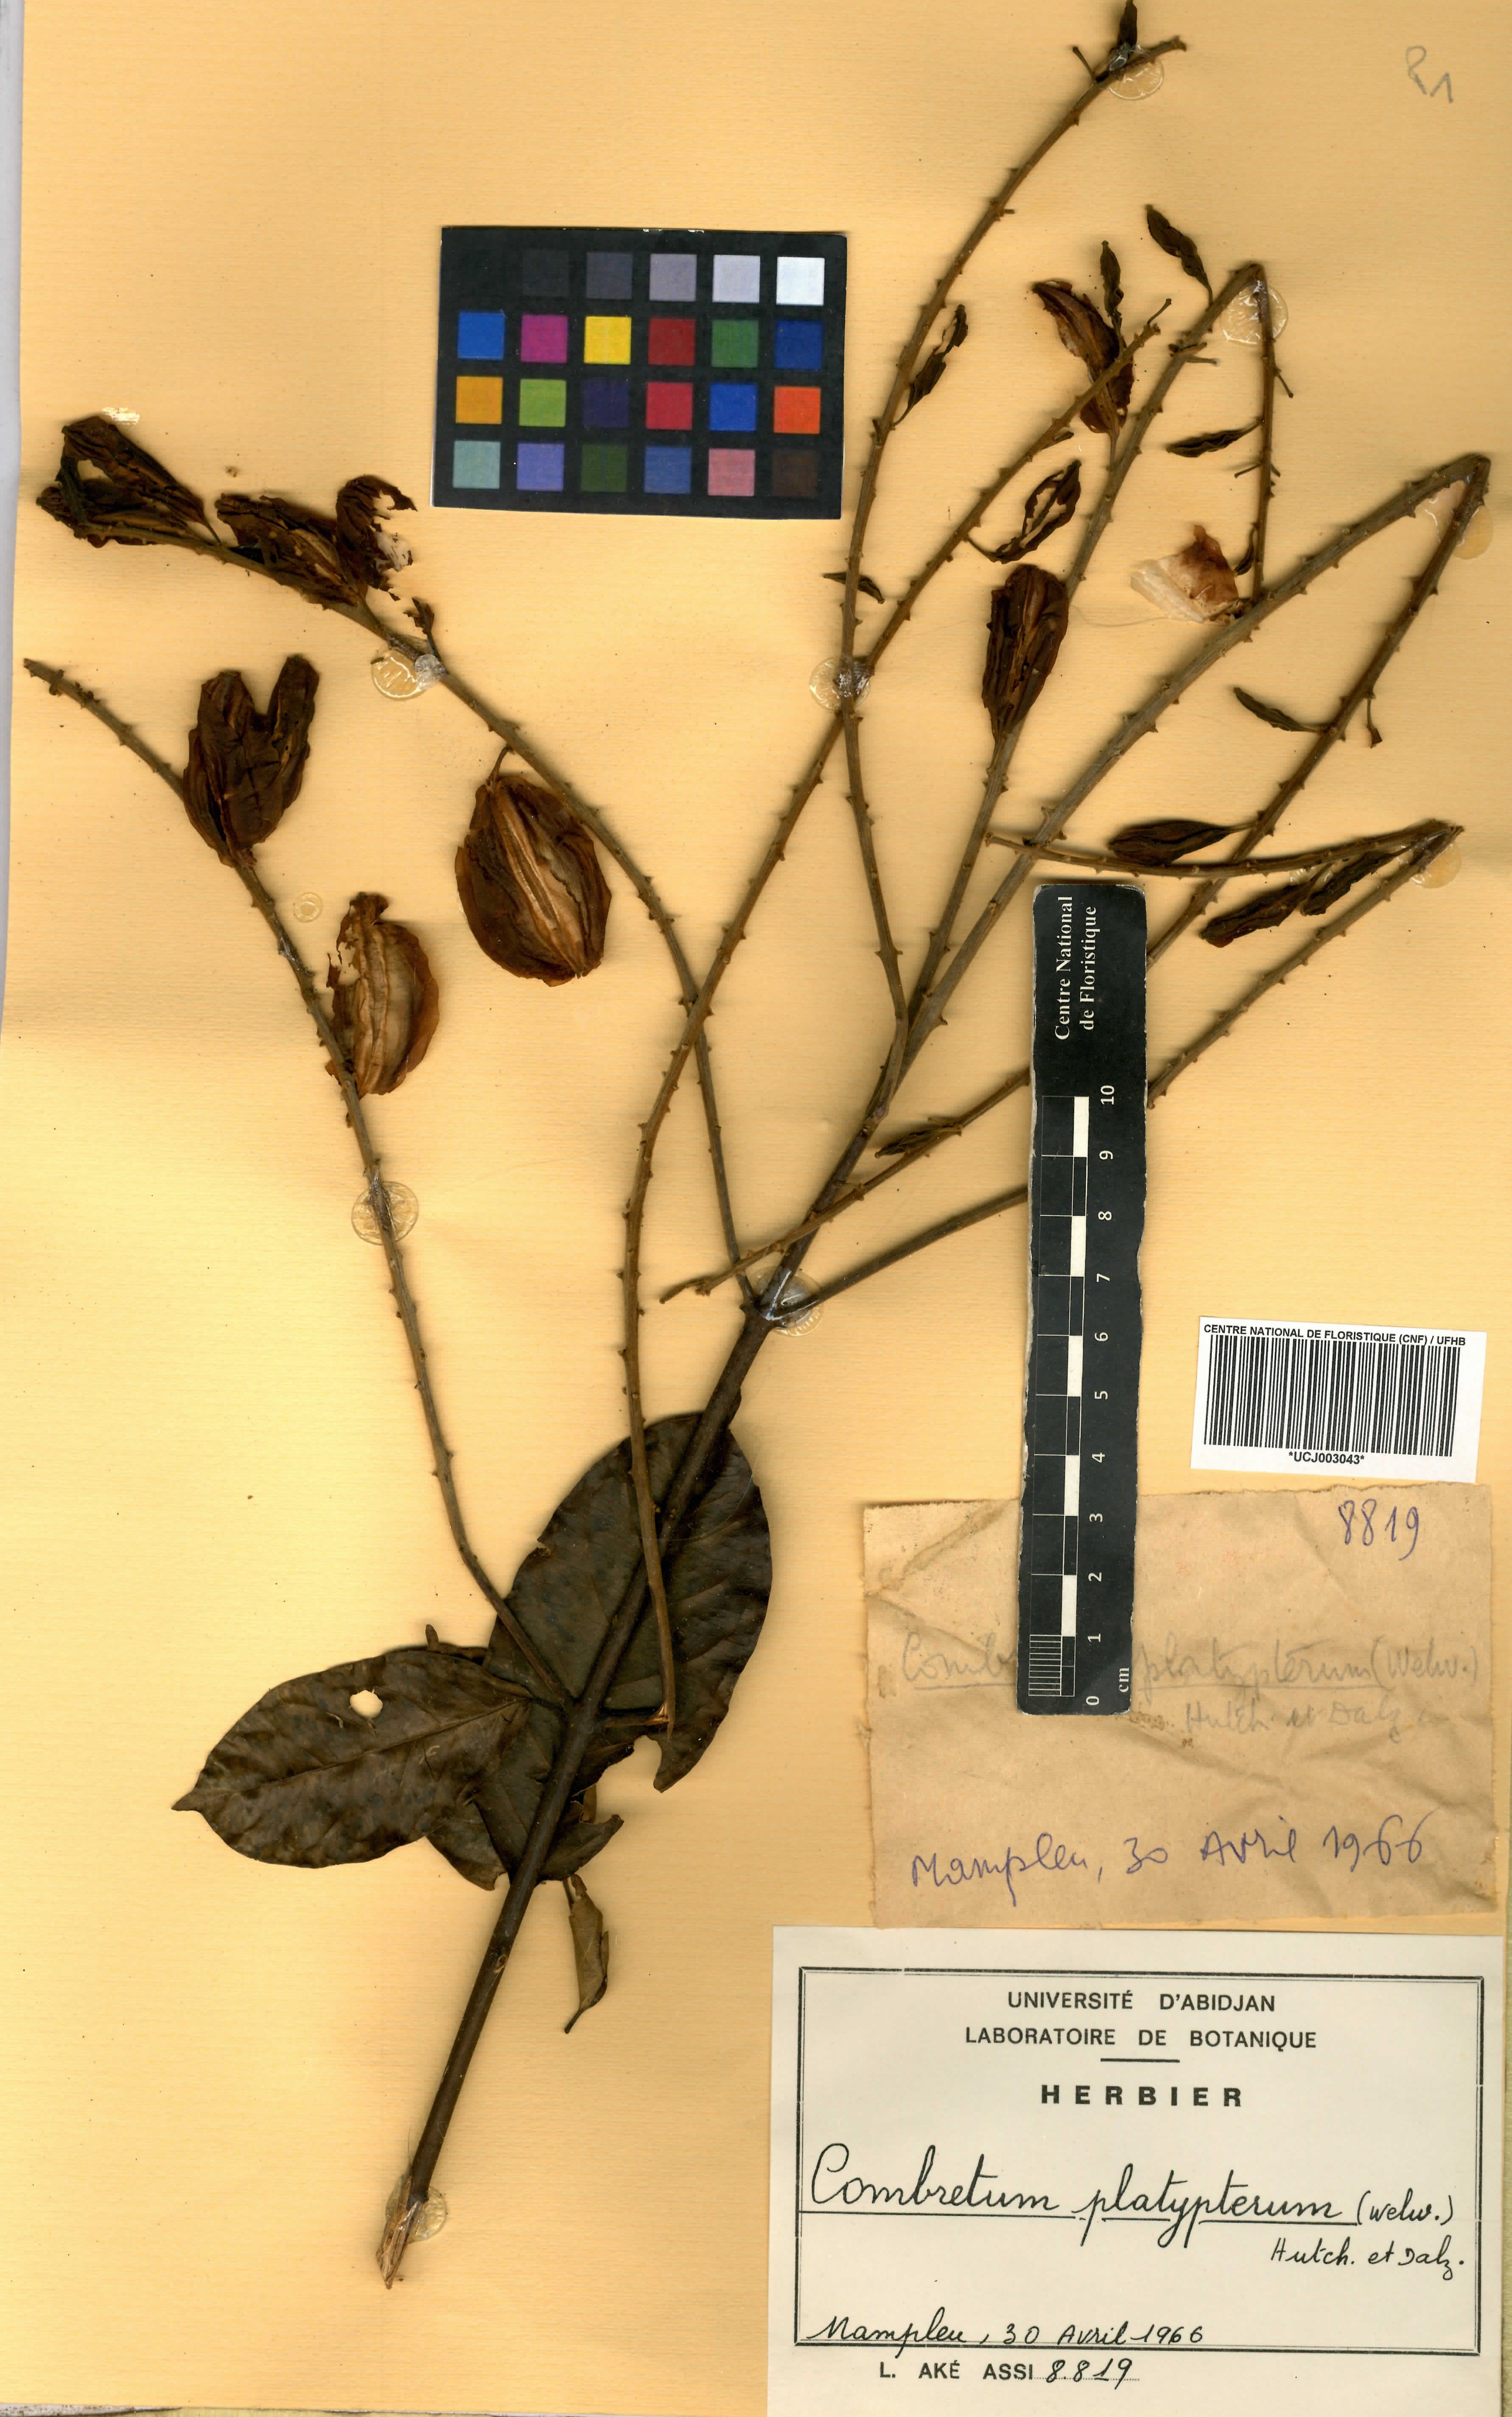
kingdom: Plantae
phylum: Tracheophyta
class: Magnoliopsida
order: Myrtales
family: Combretaceae
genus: Combretum
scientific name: Combretum platypterum
